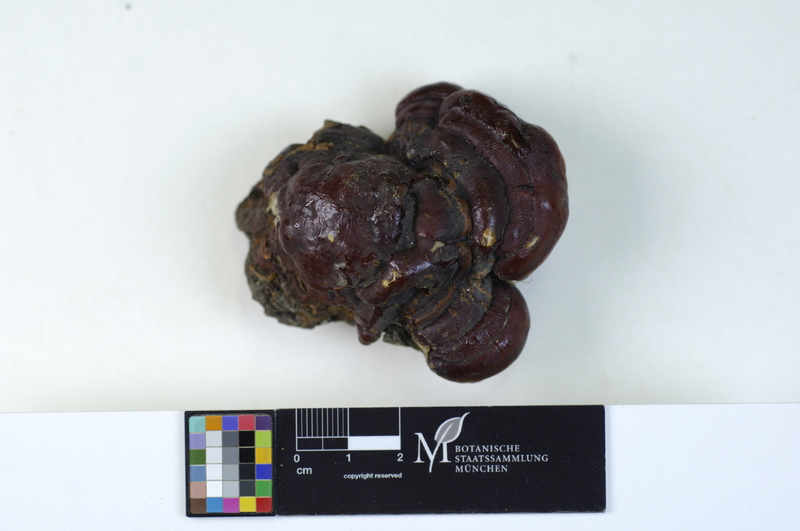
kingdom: Fungi
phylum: Basidiomycota
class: Agaricomycetes
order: Polyporales
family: Polyporaceae
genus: Ganoderma
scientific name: Ganoderma pfeifferi
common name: Beeswax bracket
